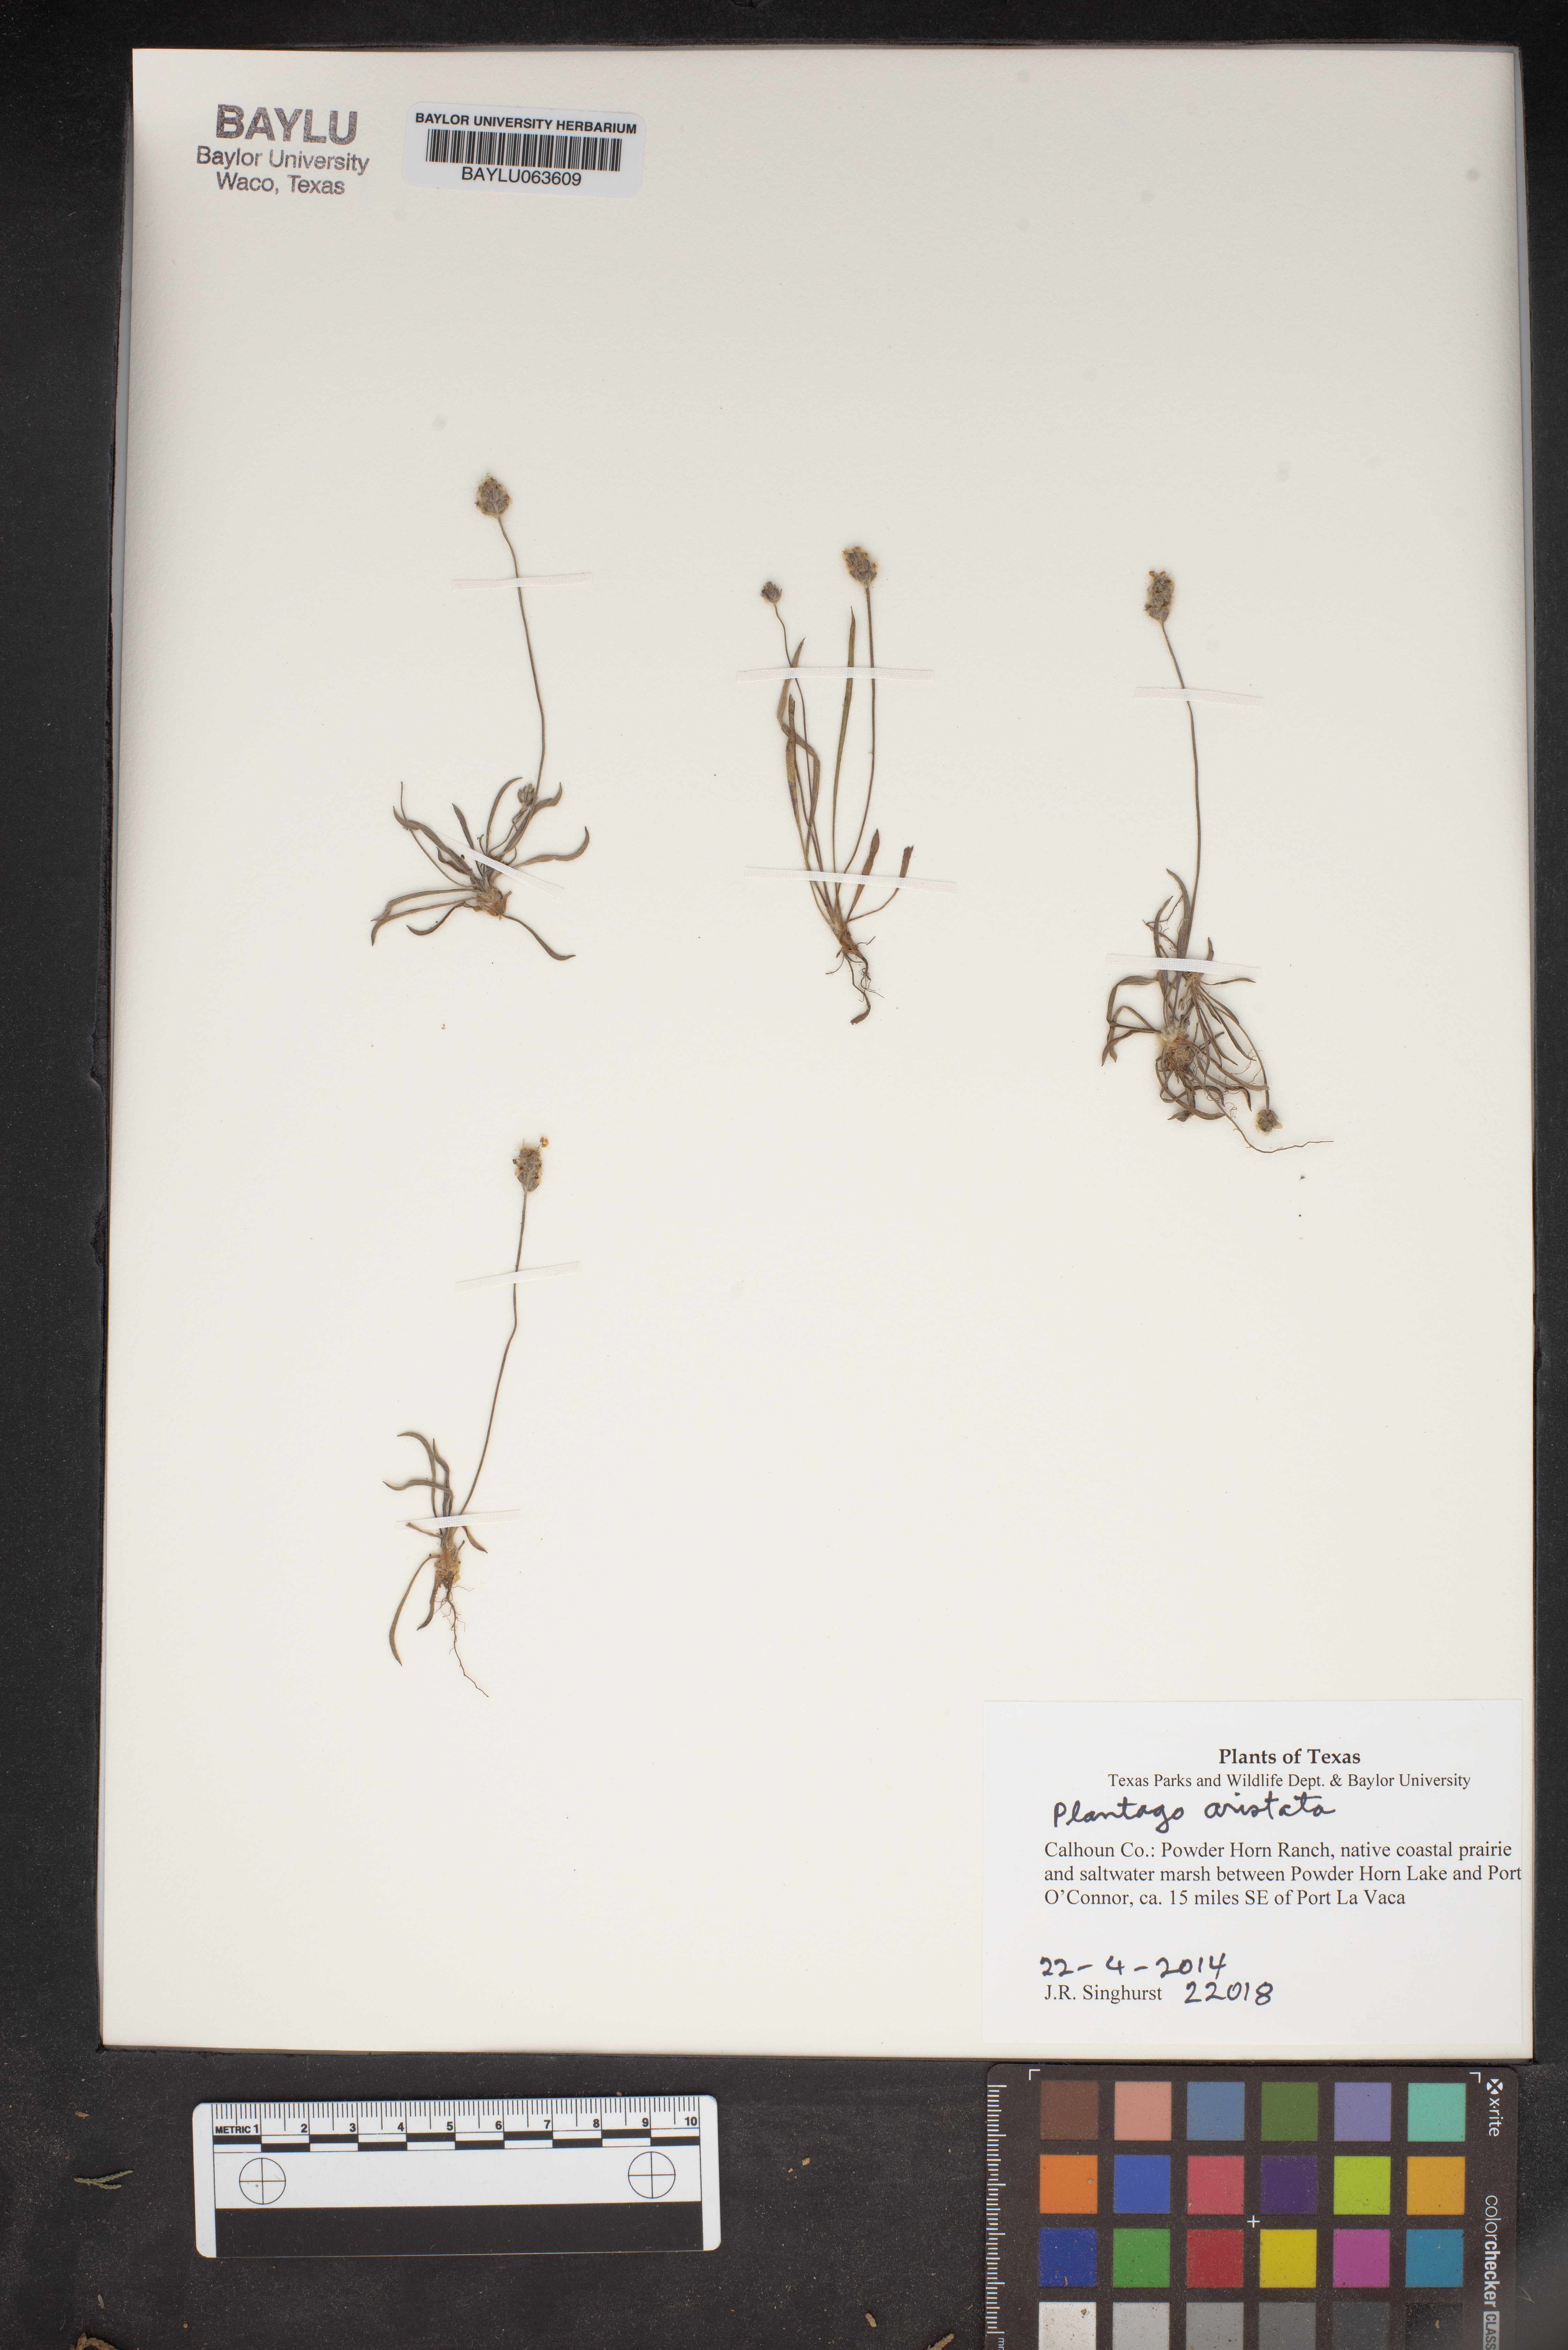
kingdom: Plantae
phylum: Tracheophyta
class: Magnoliopsida
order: Lamiales
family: Plantaginaceae
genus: Plantago
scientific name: Plantago aristata
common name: Bracted plantain
